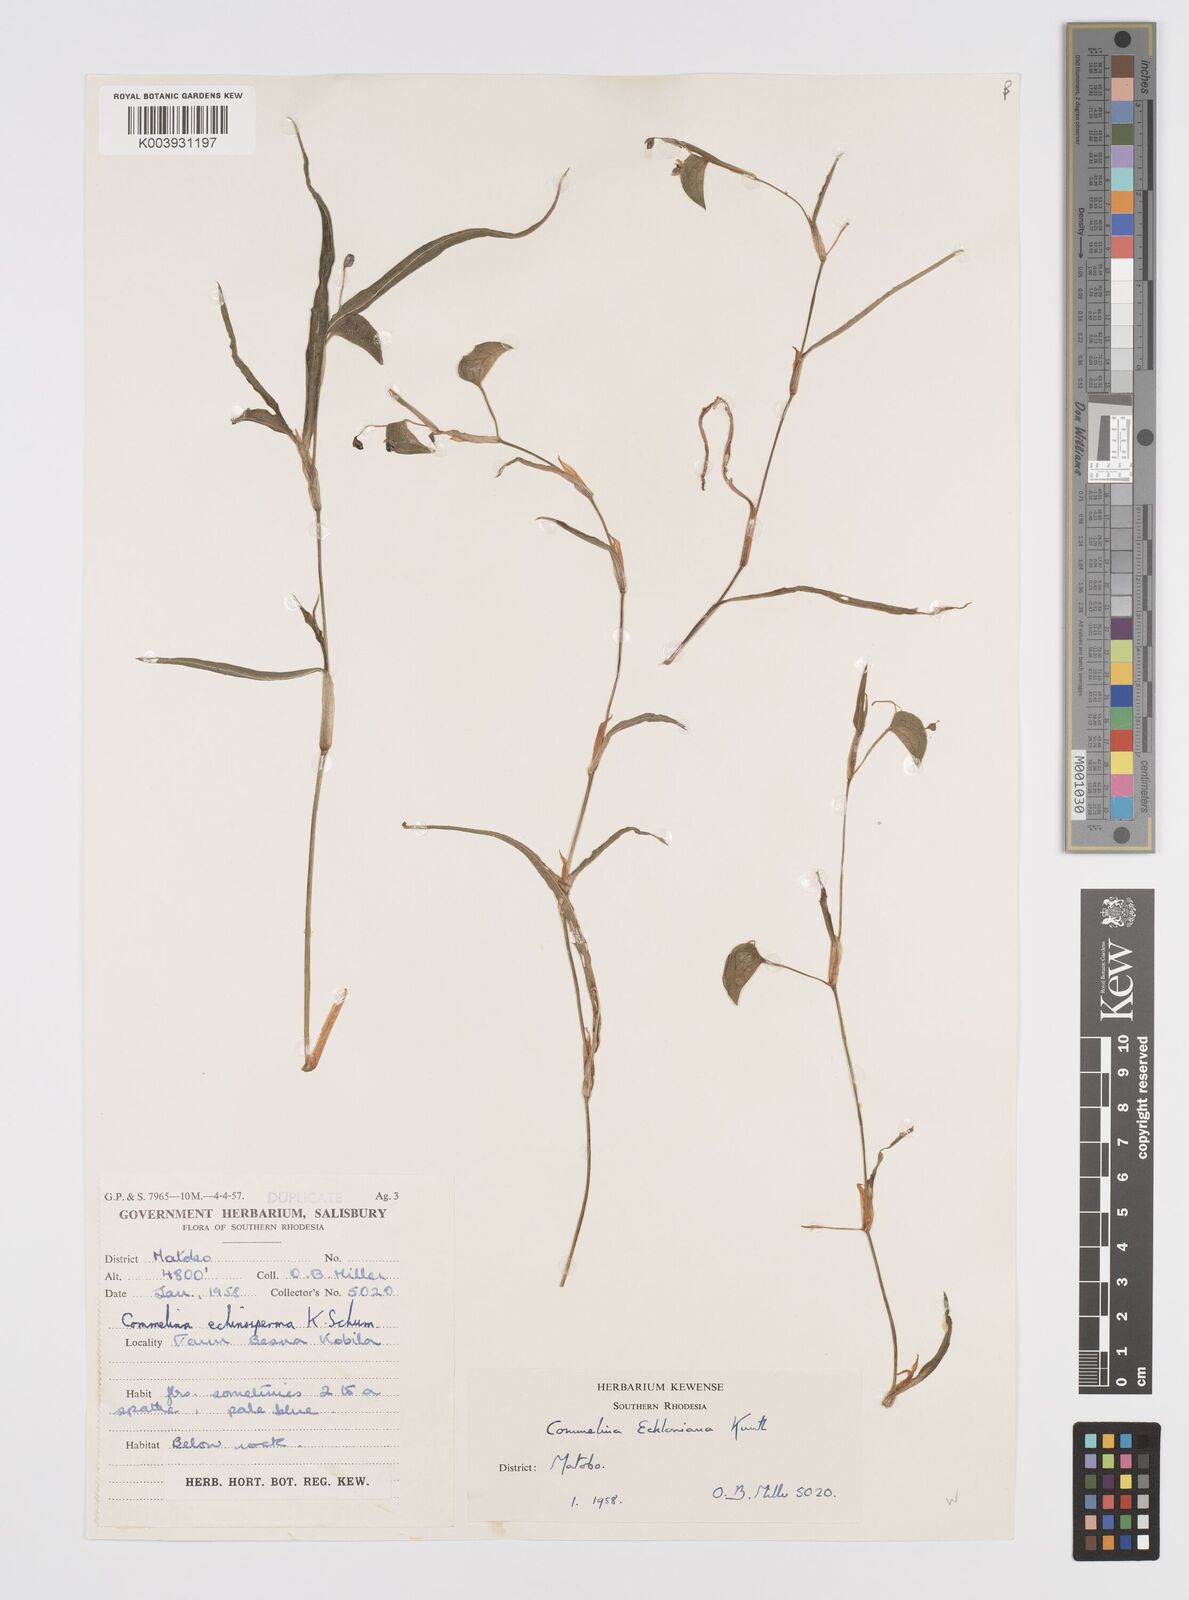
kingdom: Plantae
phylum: Tracheophyta
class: Liliopsida
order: Commelinales
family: Commelinaceae
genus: Commelina
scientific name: Commelina eckloniana
